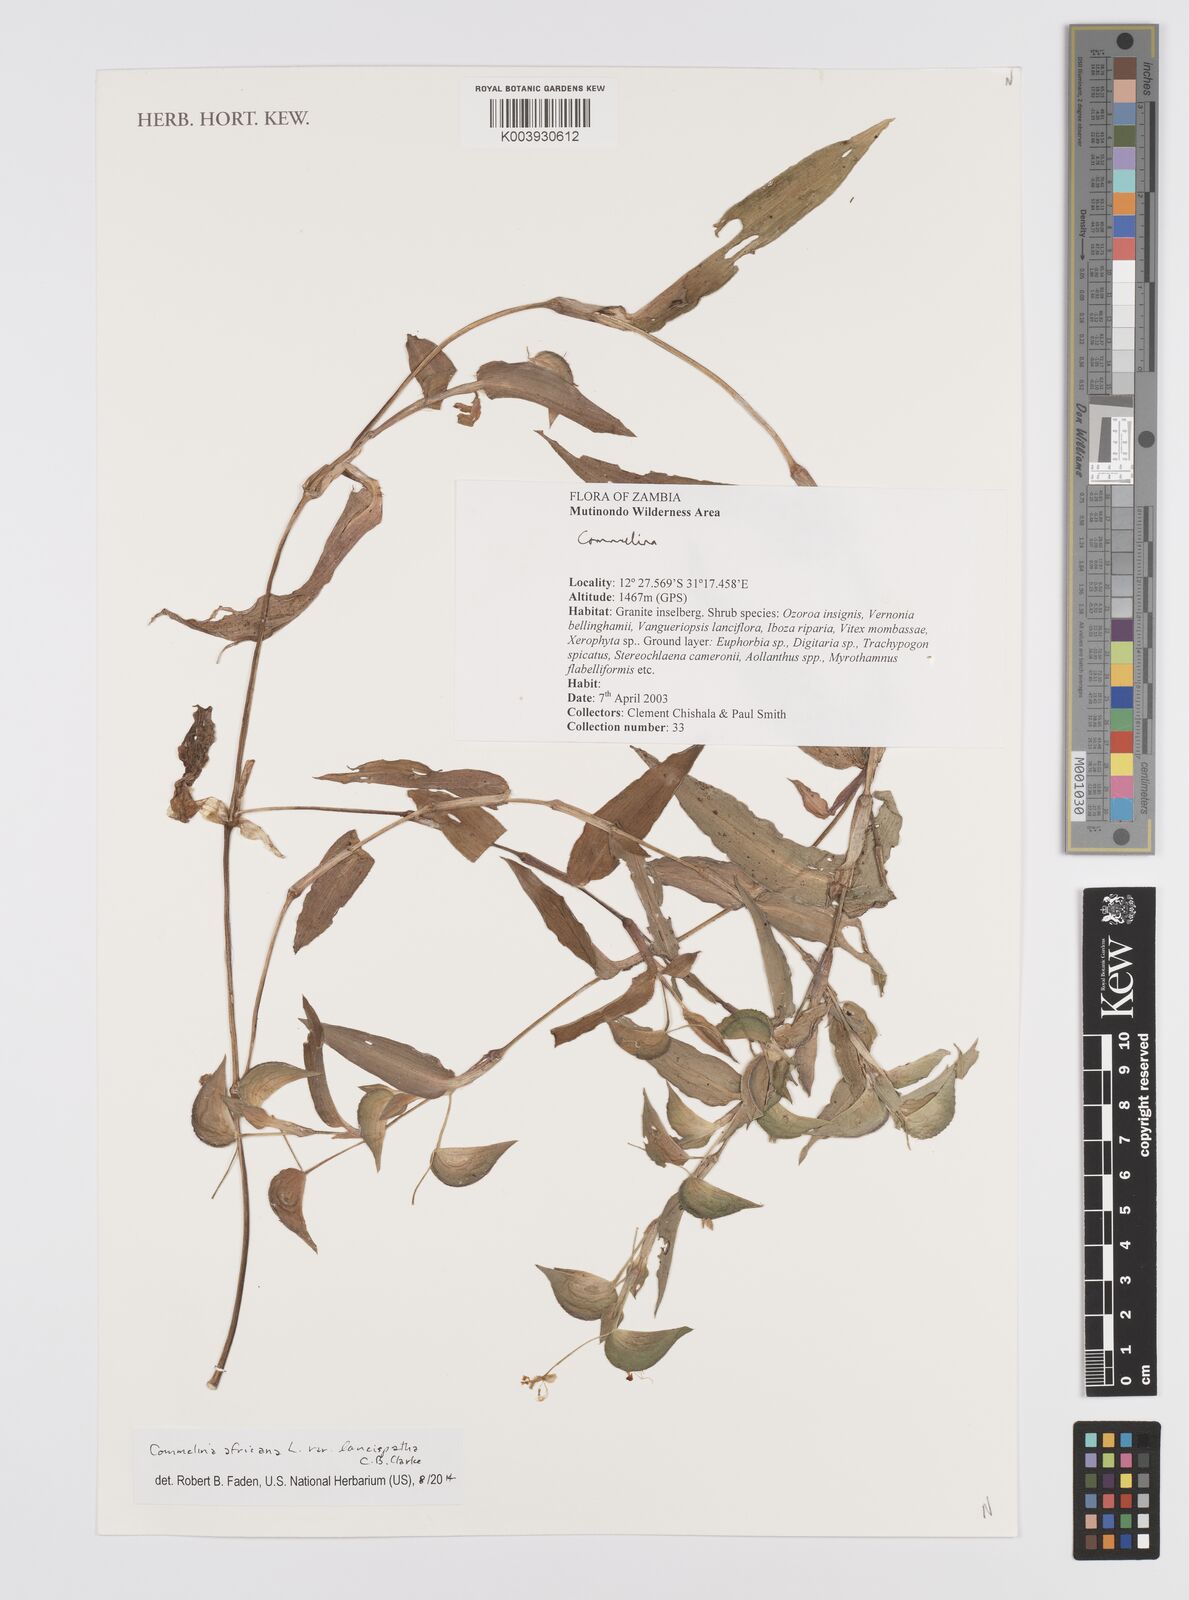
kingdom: Plantae
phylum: Tracheophyta
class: Liliopsida
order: Commelinales
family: Commelinaceae
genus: Commelina
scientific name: Commelina africana
